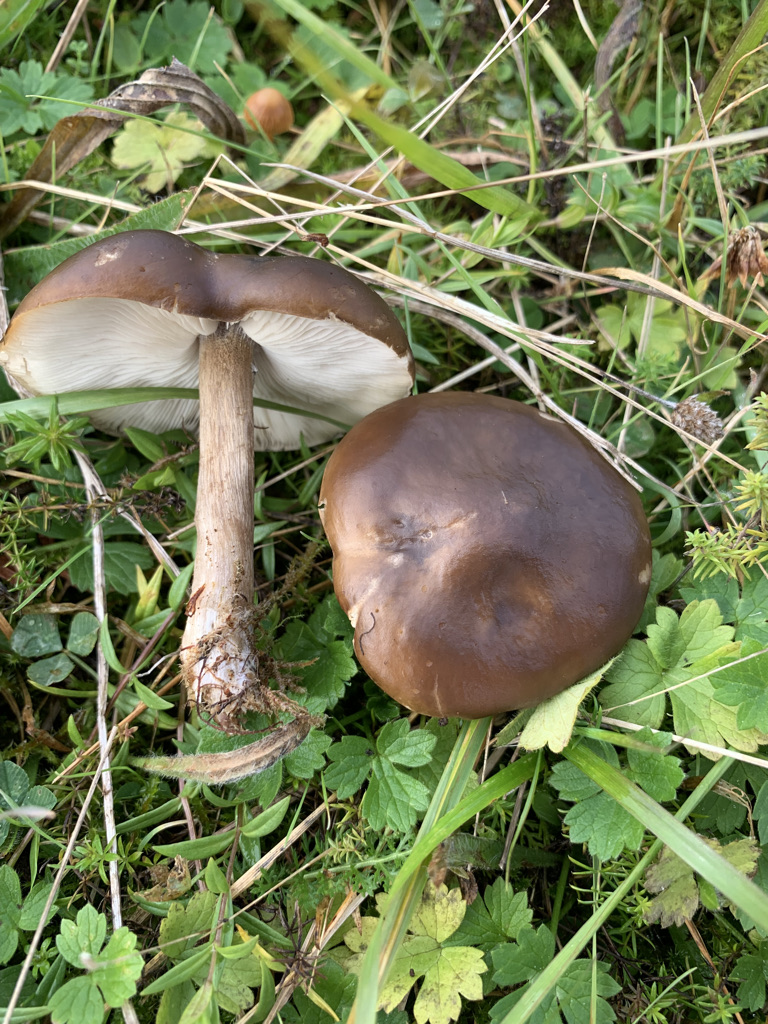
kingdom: Fungi
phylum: Basidiomycota
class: Agaricomycetes
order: Agaricales
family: Tricholomataceae
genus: Melanoleuca
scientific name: Melanoleuca polioleuca
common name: hvidbladet munkehat
